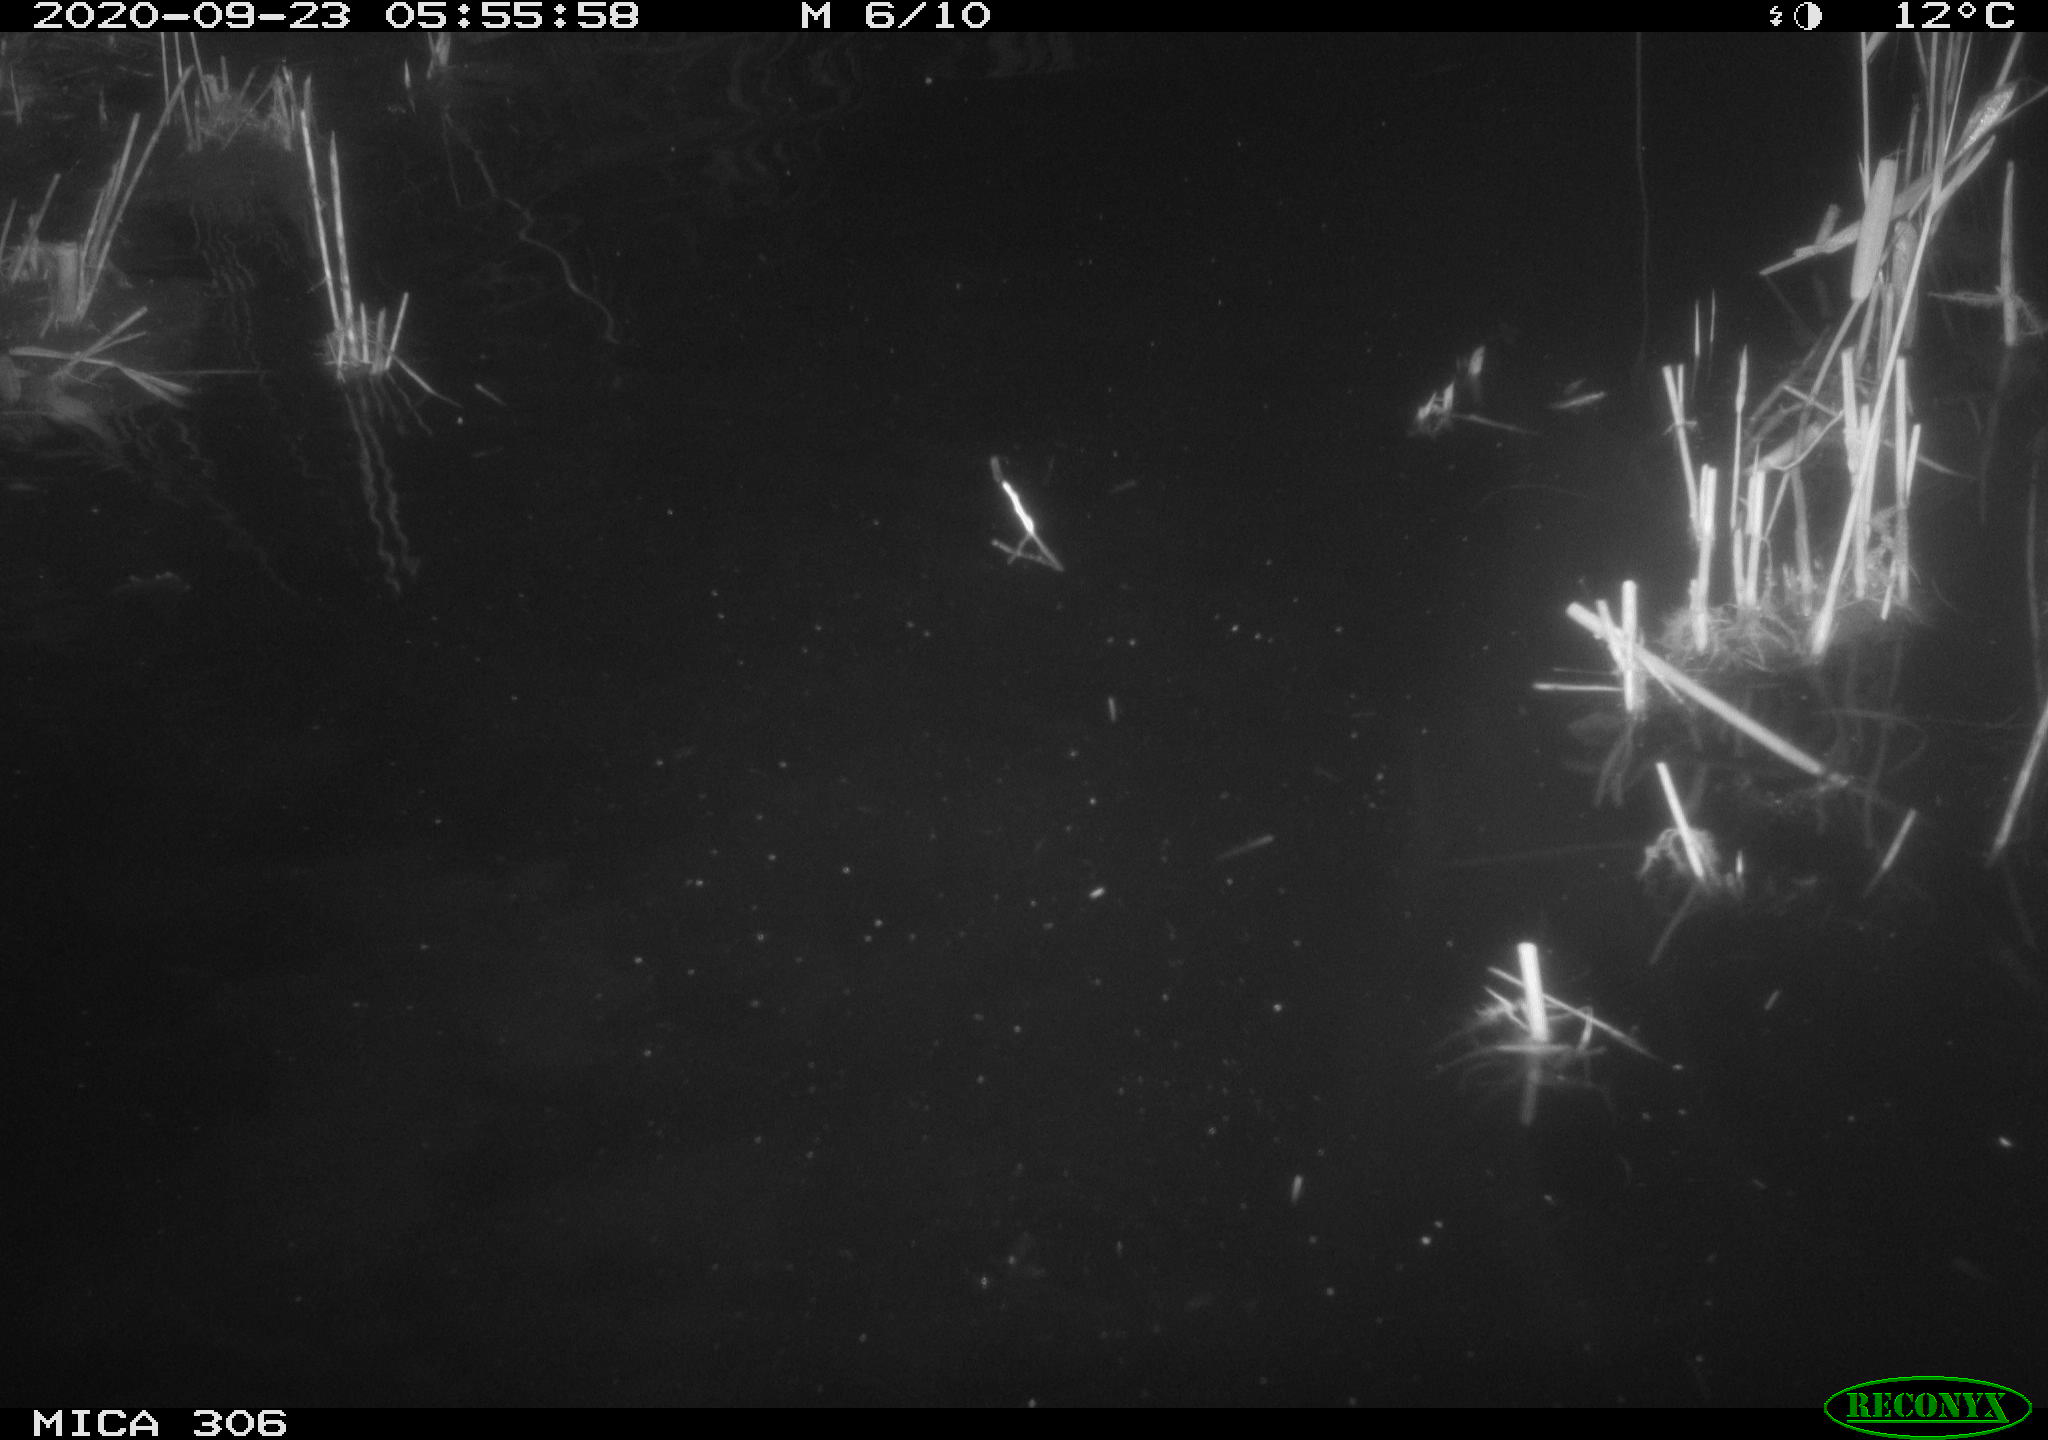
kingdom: Animalia
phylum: Chordata
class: Mammalia
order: Rodentia
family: Muridae
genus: Rattus
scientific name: Rattus norvegicus
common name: Brown rat
